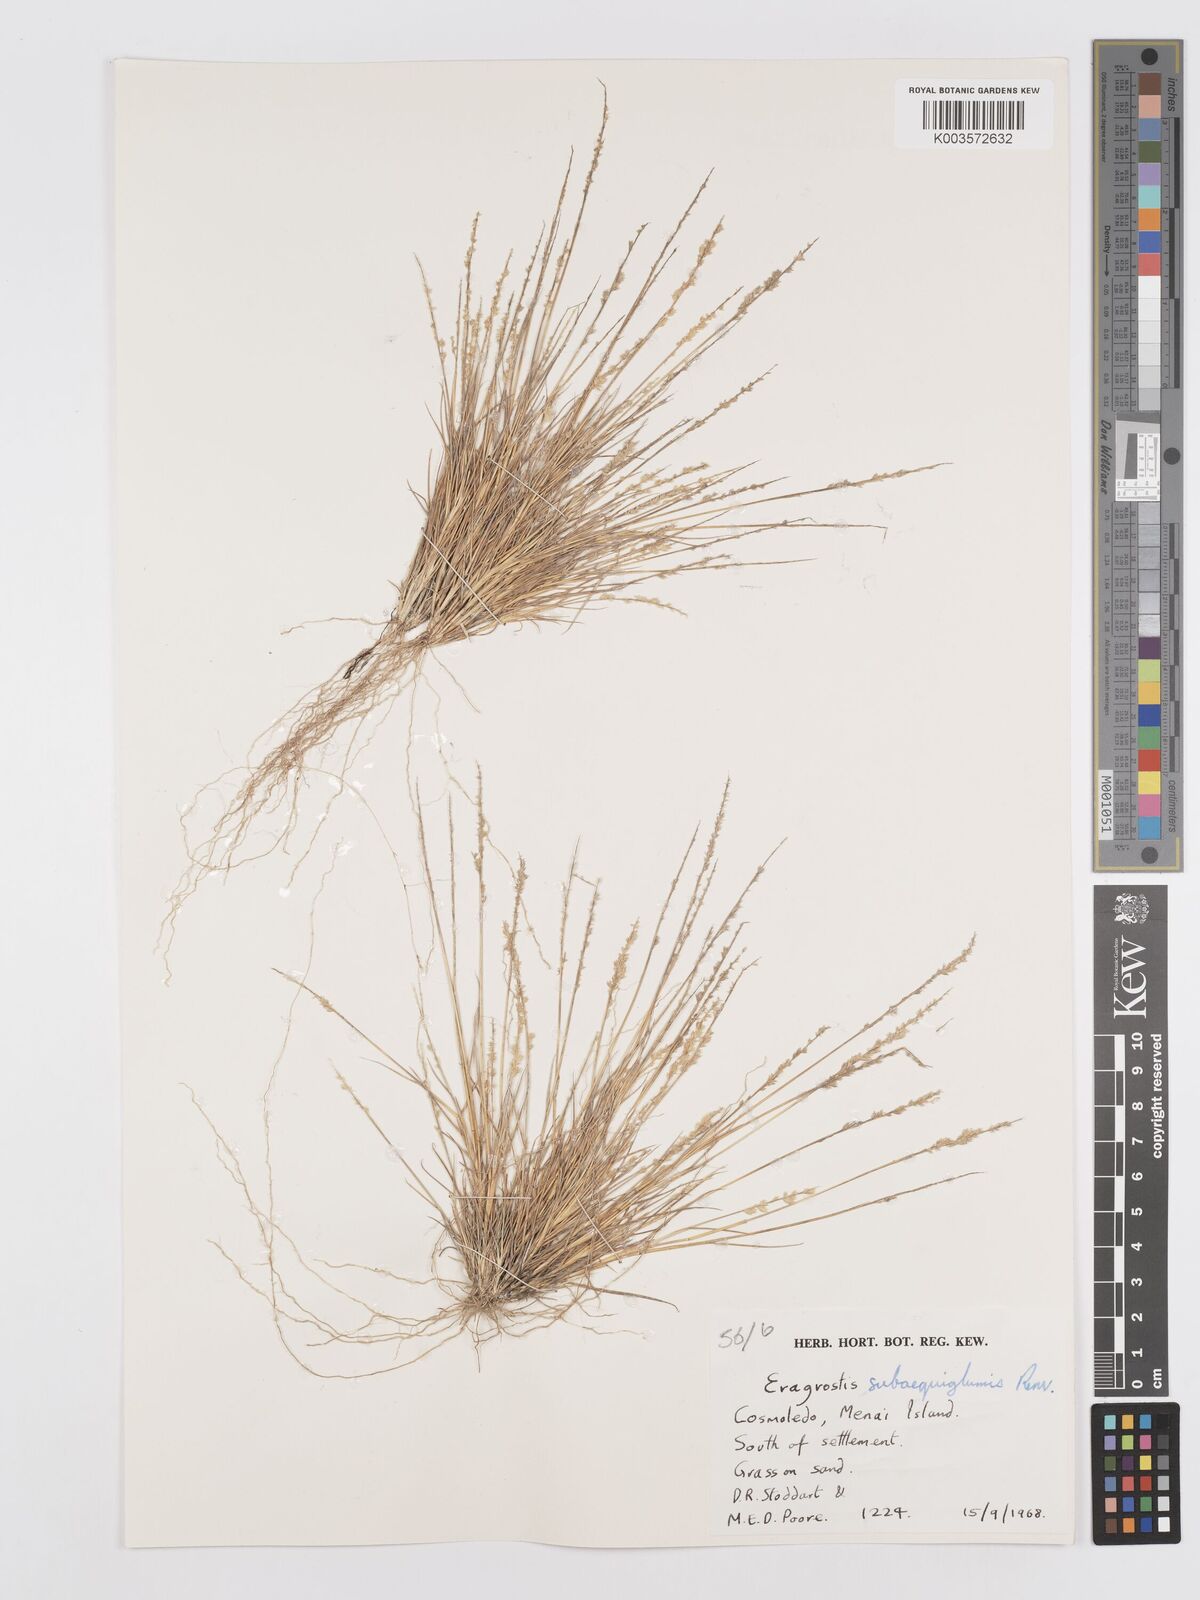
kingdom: Plantae
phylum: Tracheophyta
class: Liliopsida
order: Poales
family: Poaceae
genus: Eragrostis
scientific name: Eragrostis subaequiglumis
